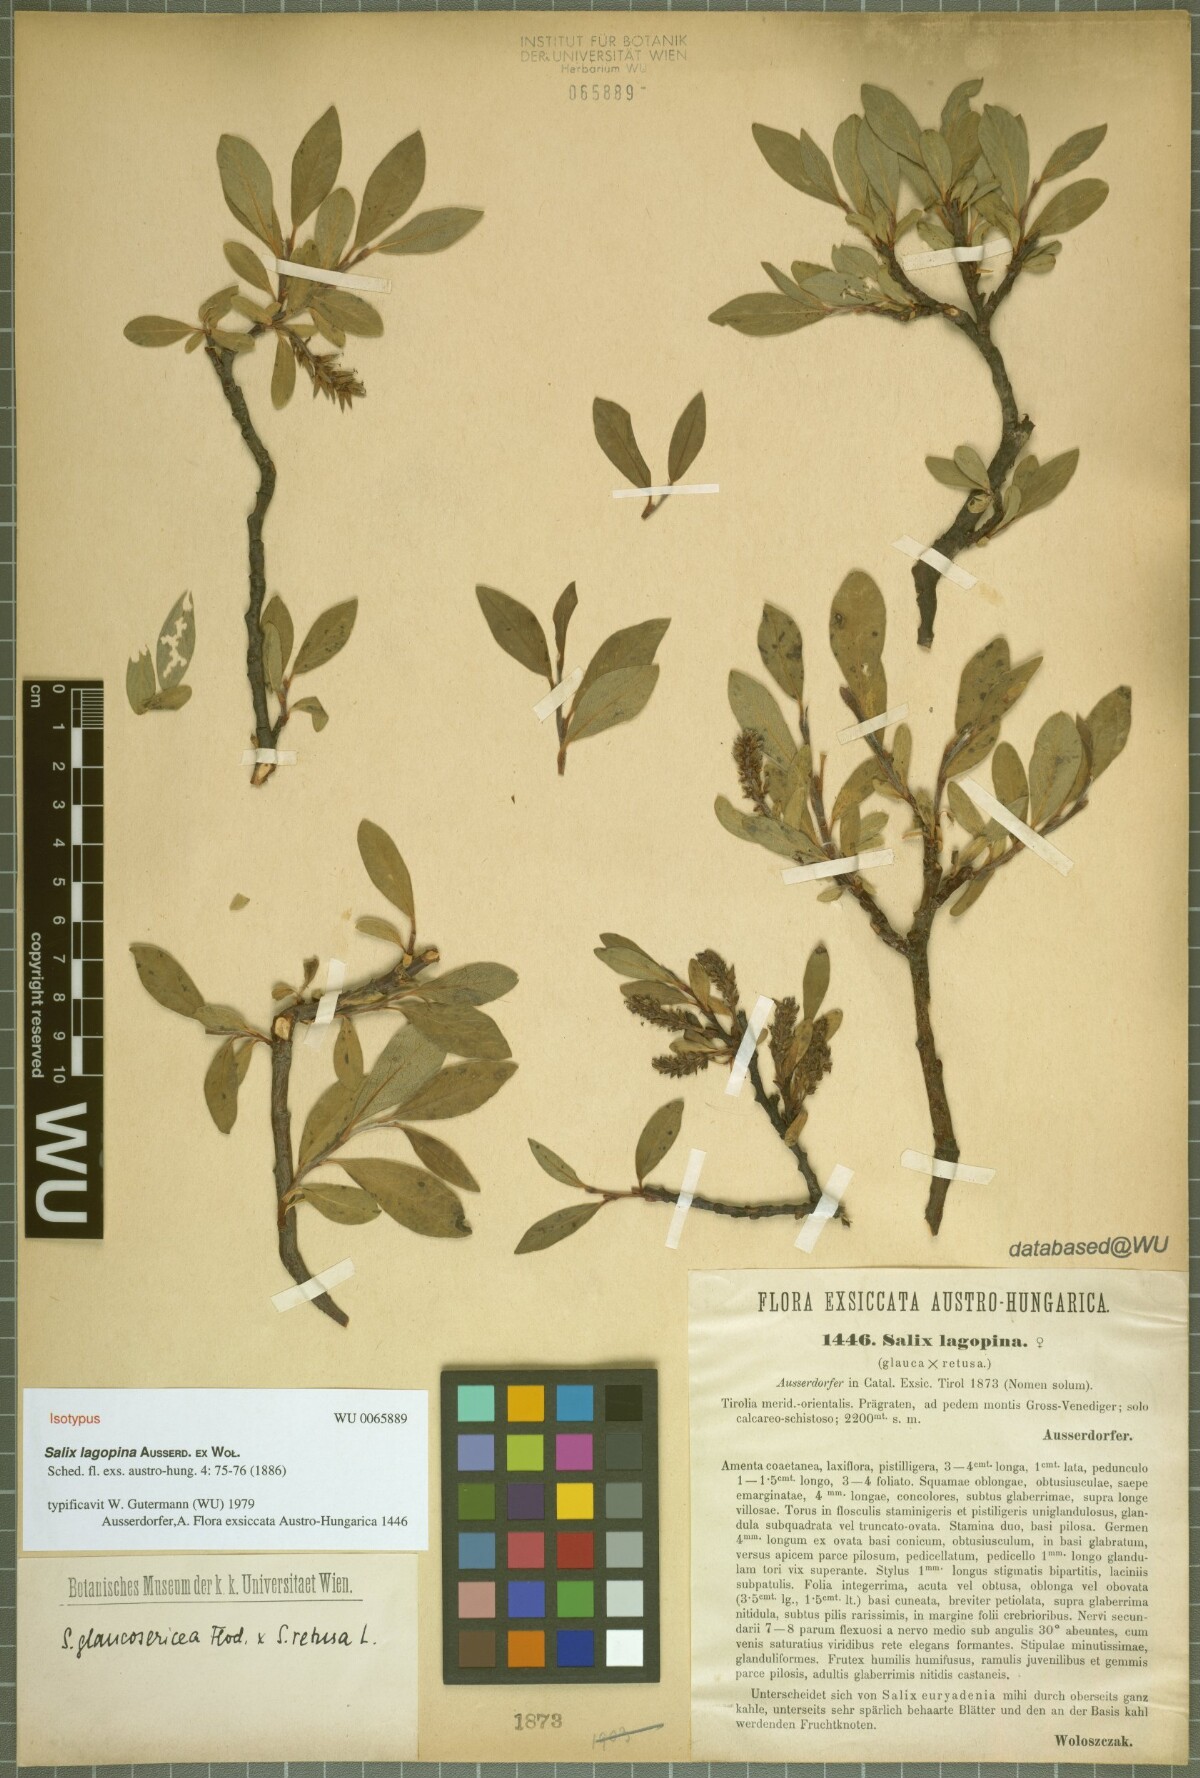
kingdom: Plantae
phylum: Tracheophyta
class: Magnoliopsida
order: Malpighiales
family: Salicaceae
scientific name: Salicaceae
